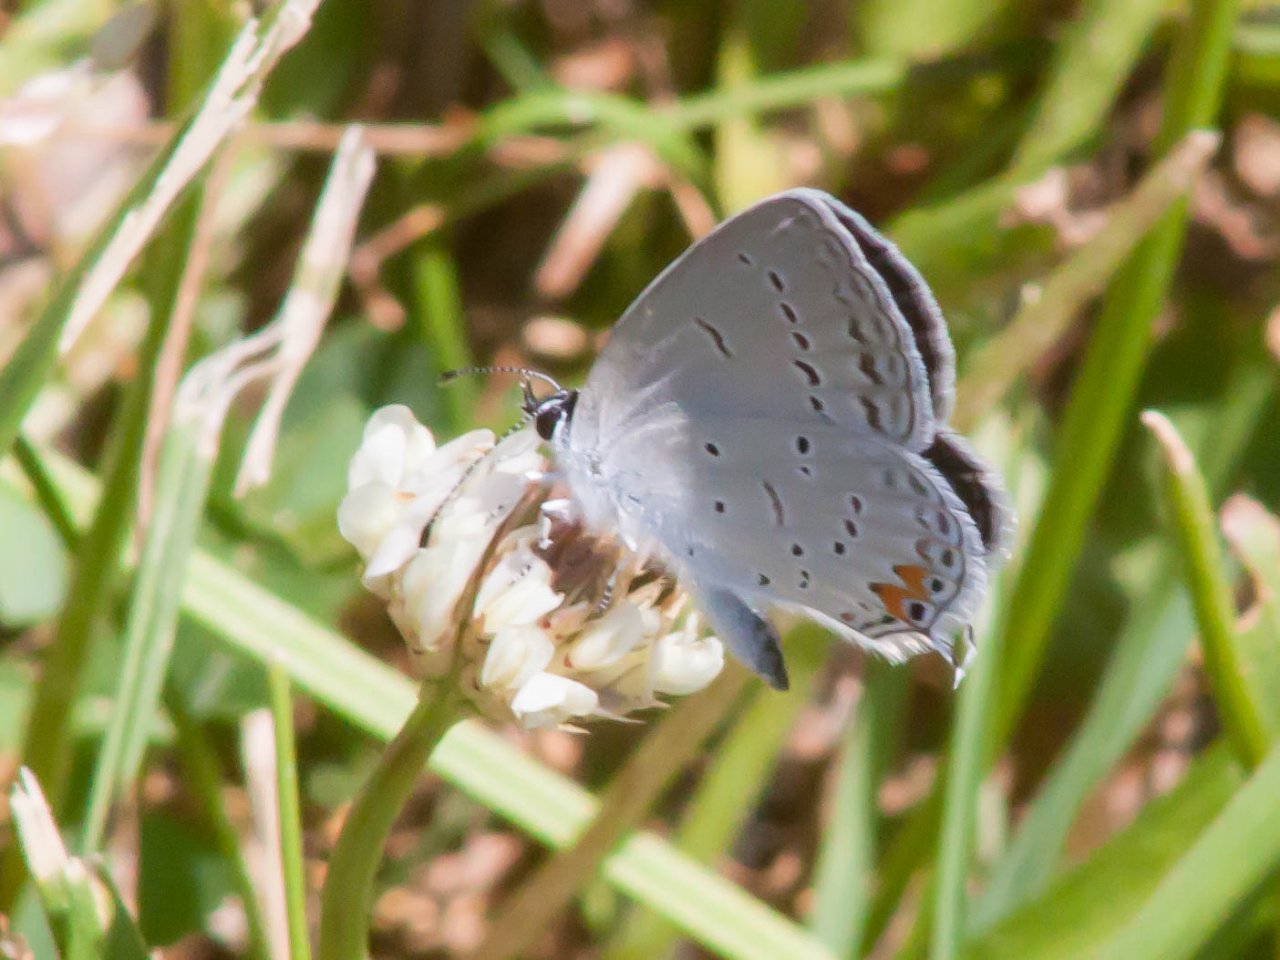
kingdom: Animalia
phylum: Arthropoda
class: Insecta
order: Lepidoptera
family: Lycaenidae
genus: Elkalyce
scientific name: Elkalyce comyntas
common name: Eastern Tailed-Blue
